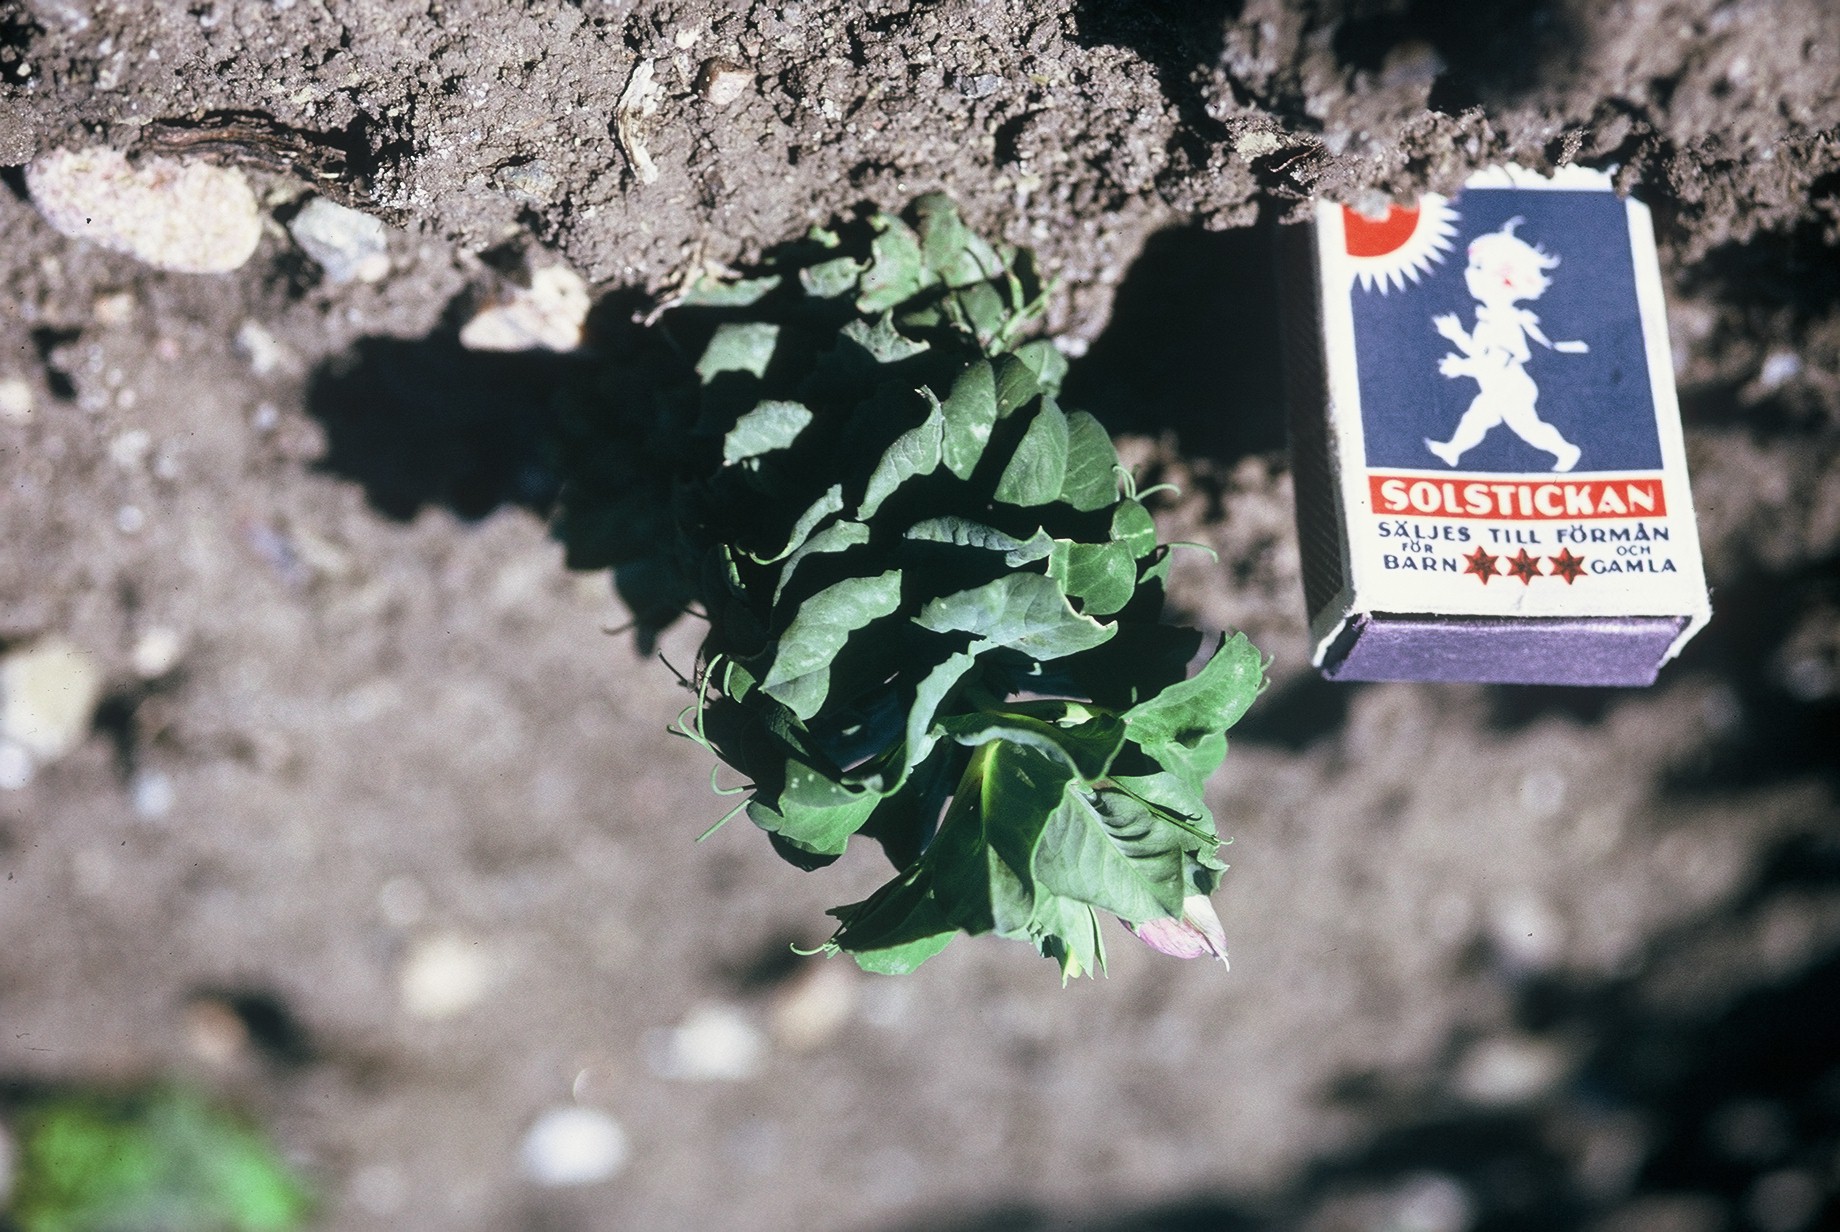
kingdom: Plantae
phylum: Tracheophyta
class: Magnoliopsida
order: Fabales
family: Fabaceae
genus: Lathyrus
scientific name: Lathyrus oleraceus
